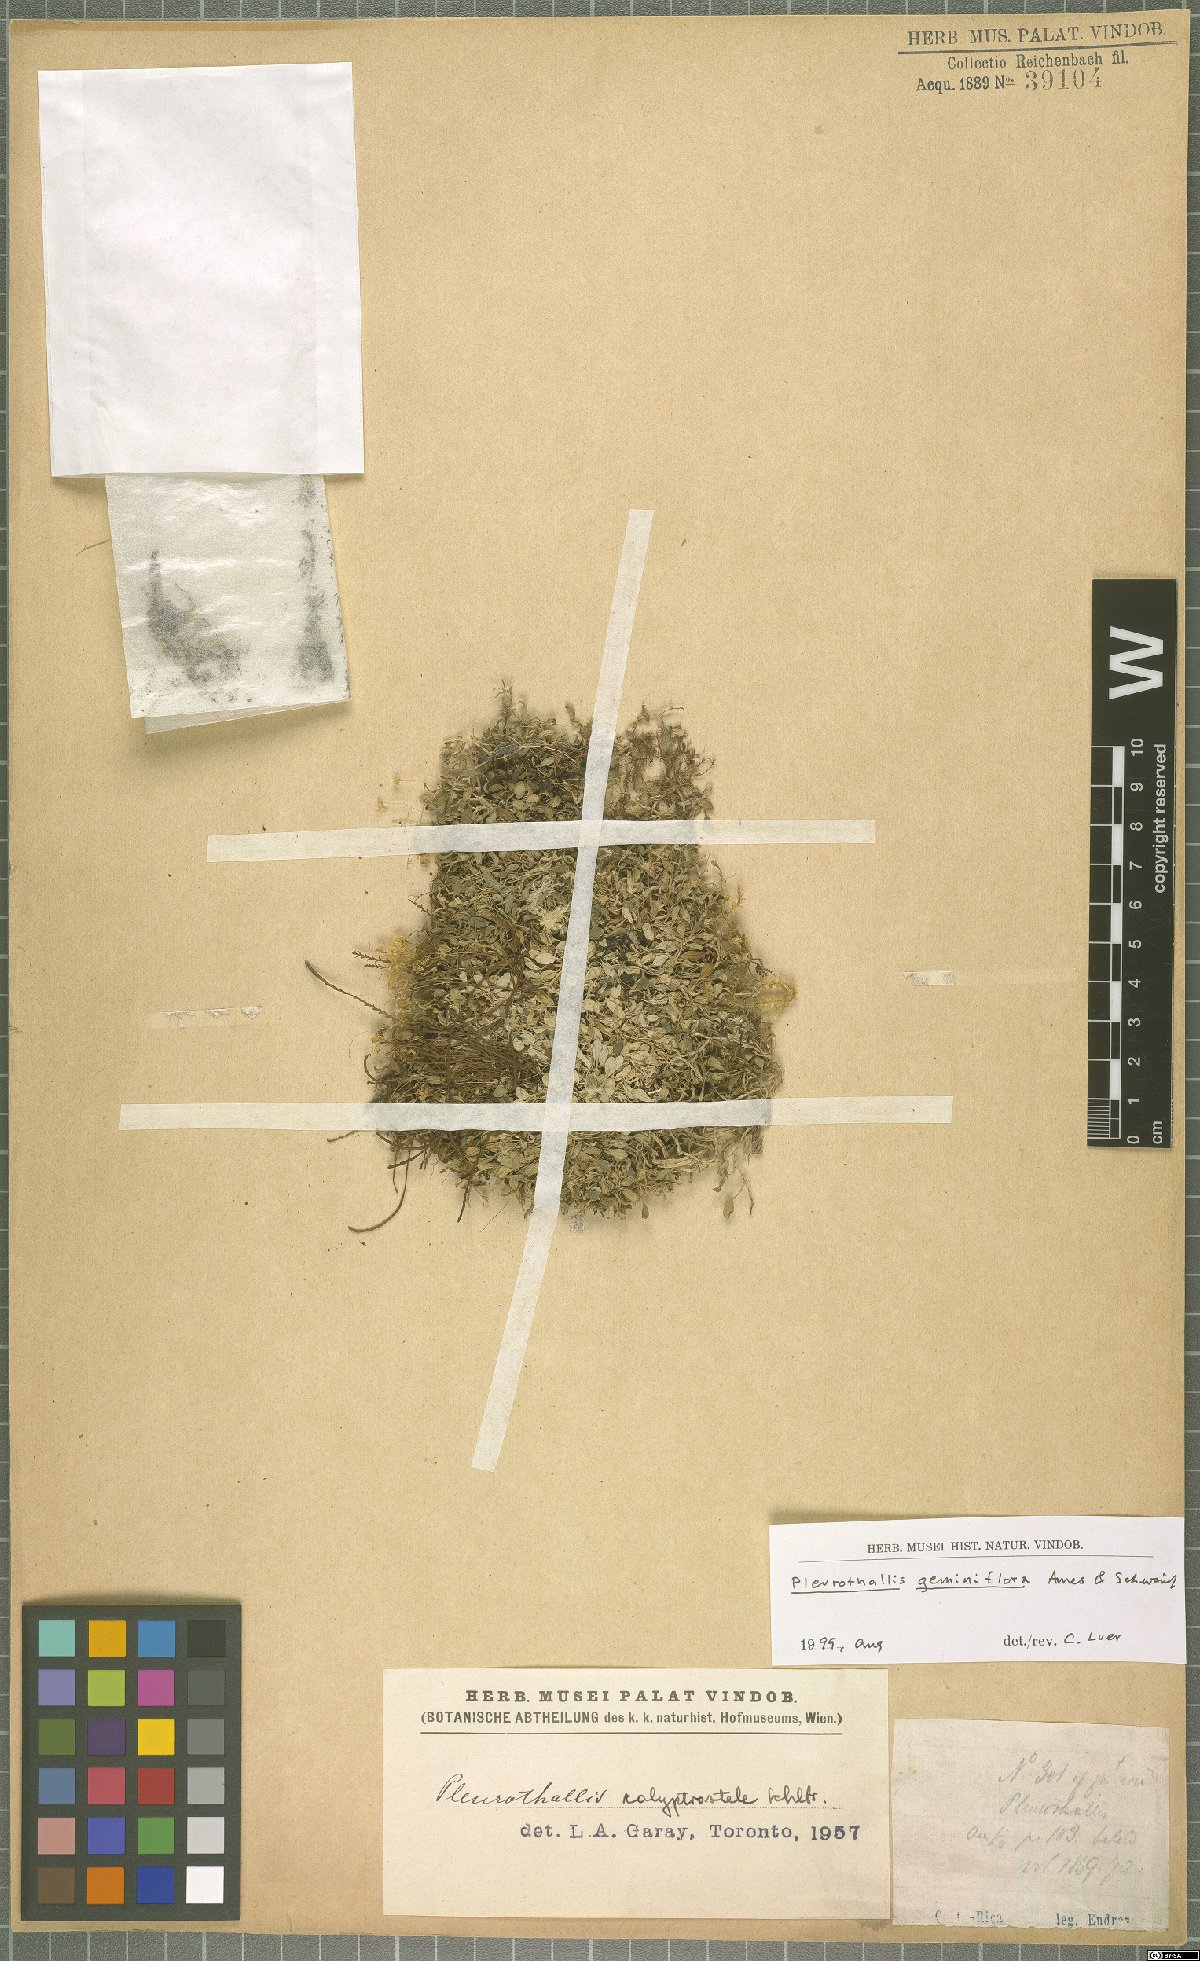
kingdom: Plantae
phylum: Tracheophyta
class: Liliopsida
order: Asparagales
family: Orchidaceae
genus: Specklinia
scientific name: Specklinia calyptrostele
